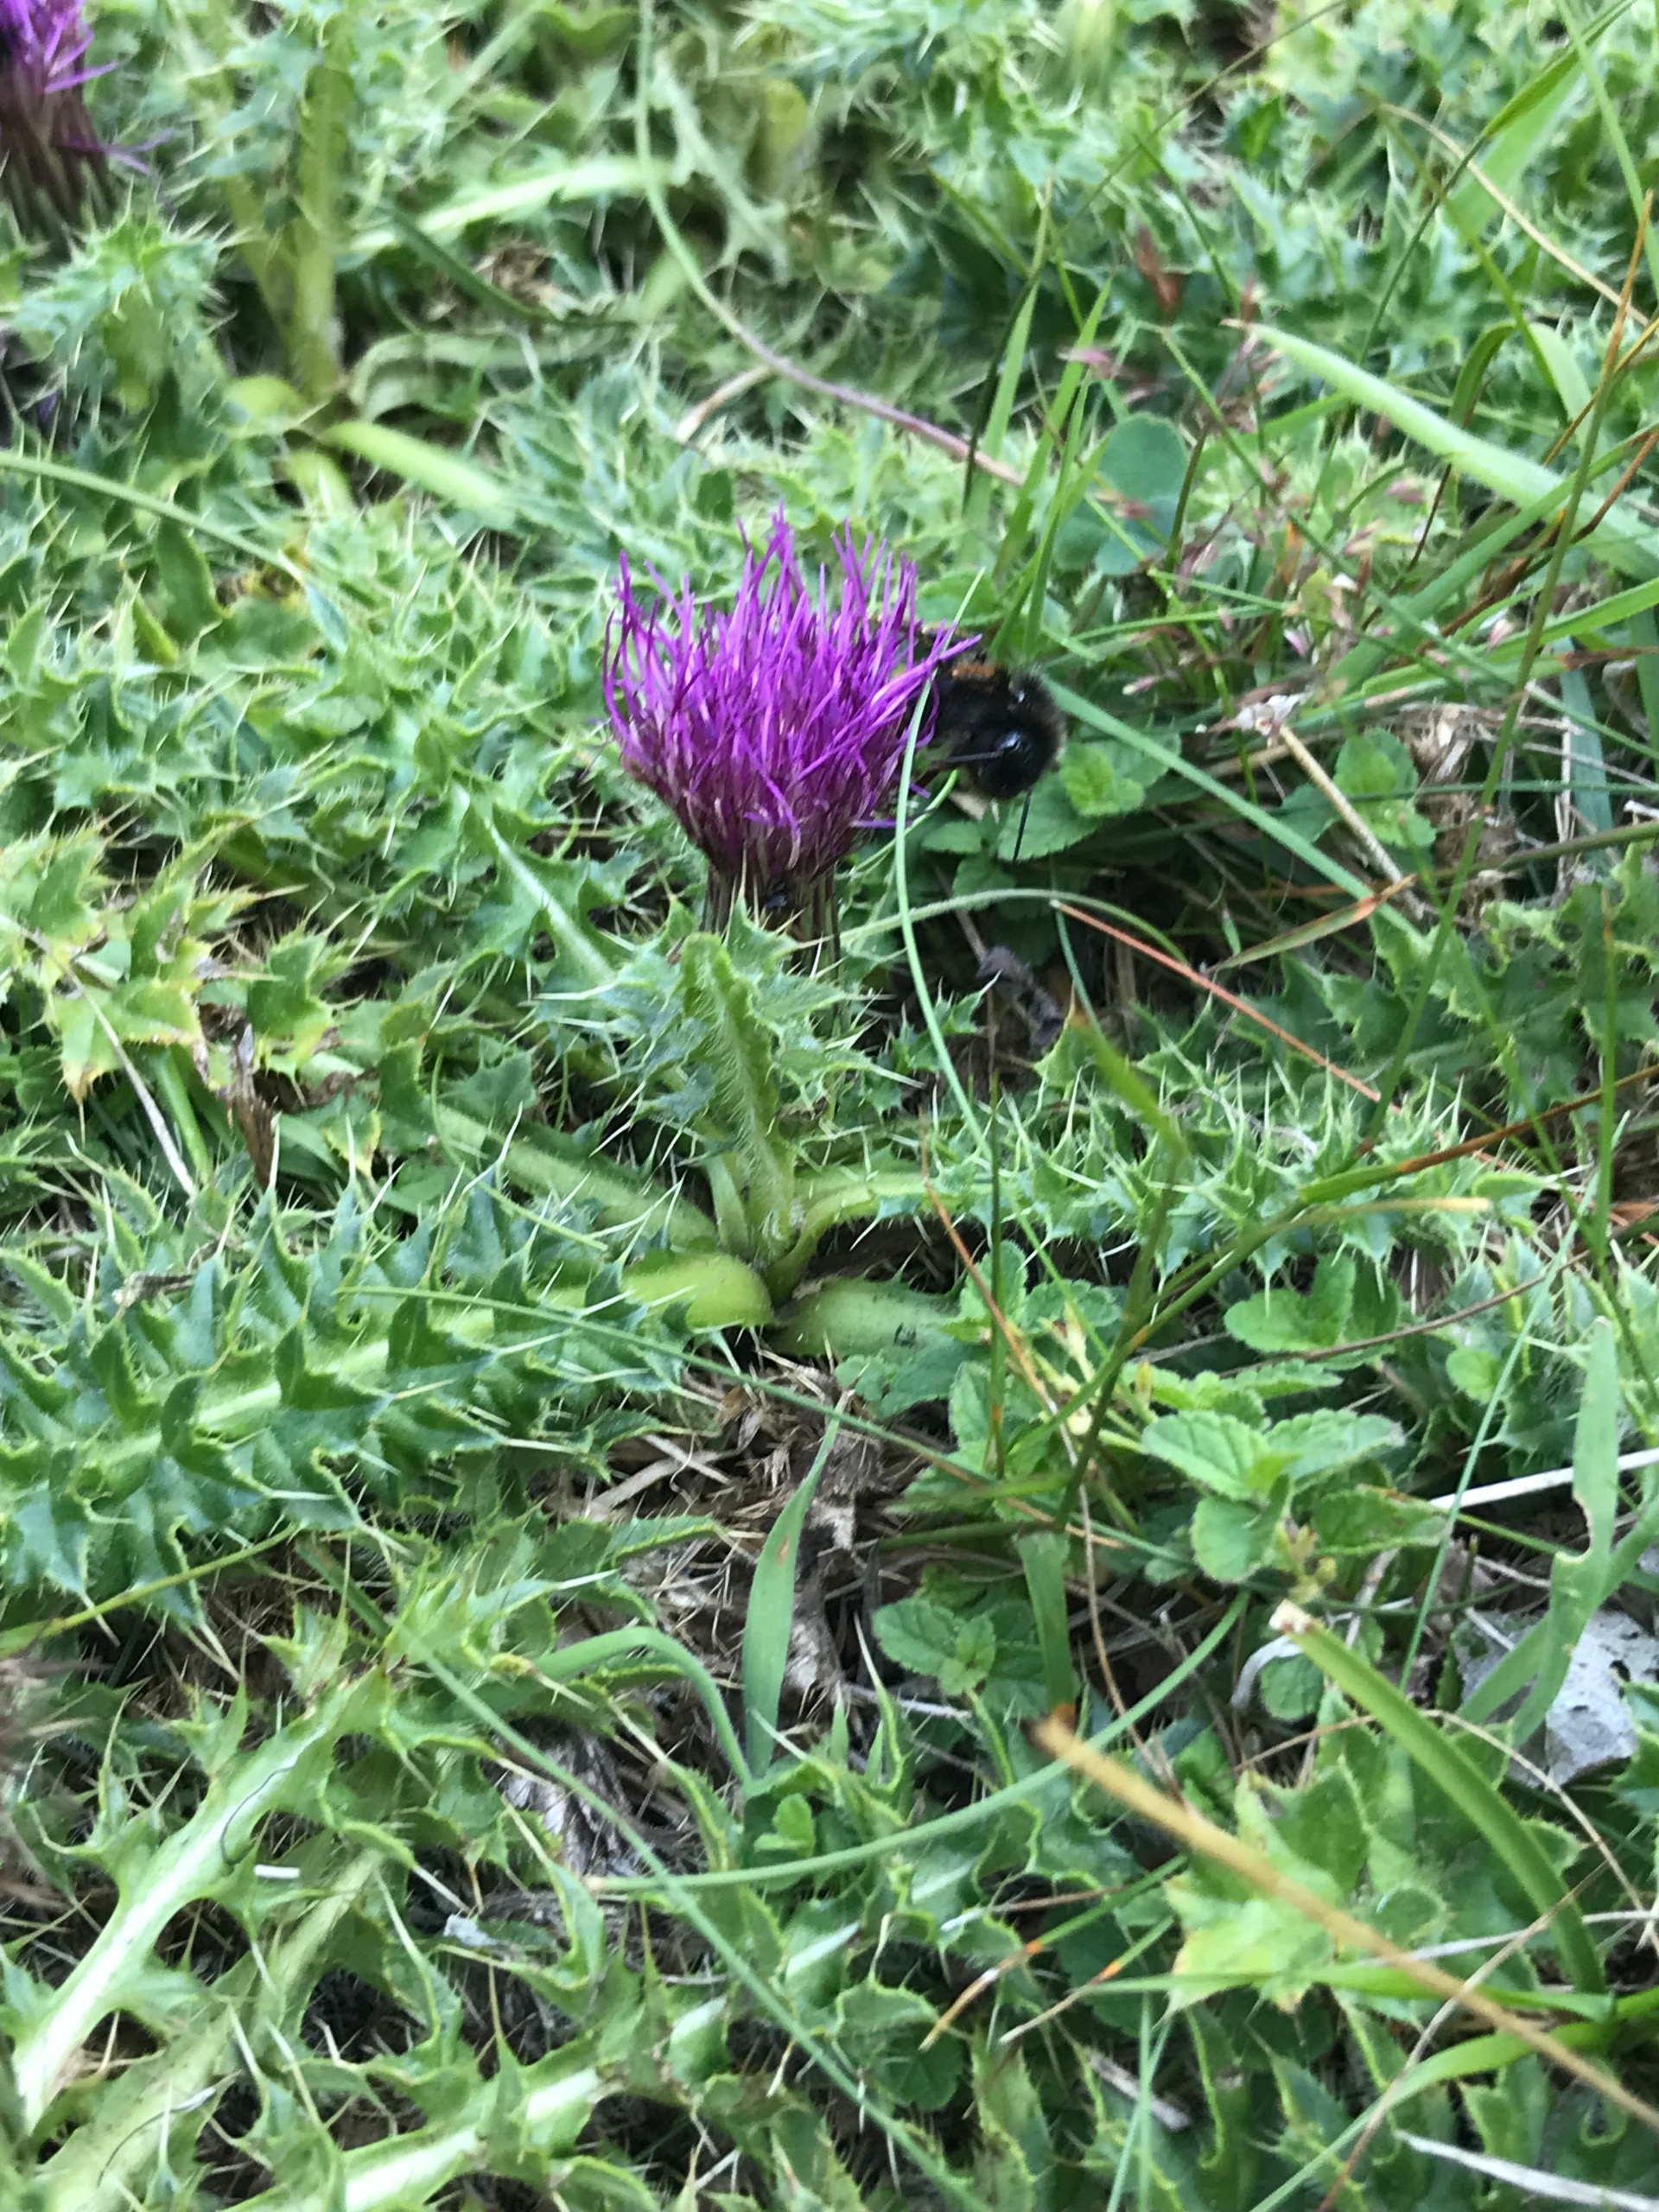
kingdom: Plantae
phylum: Tracheophyta
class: Magnoliopsida
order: Asterales
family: Asteraceae
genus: Cirsium
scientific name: Cirsium acaule
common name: Lav tidsel
